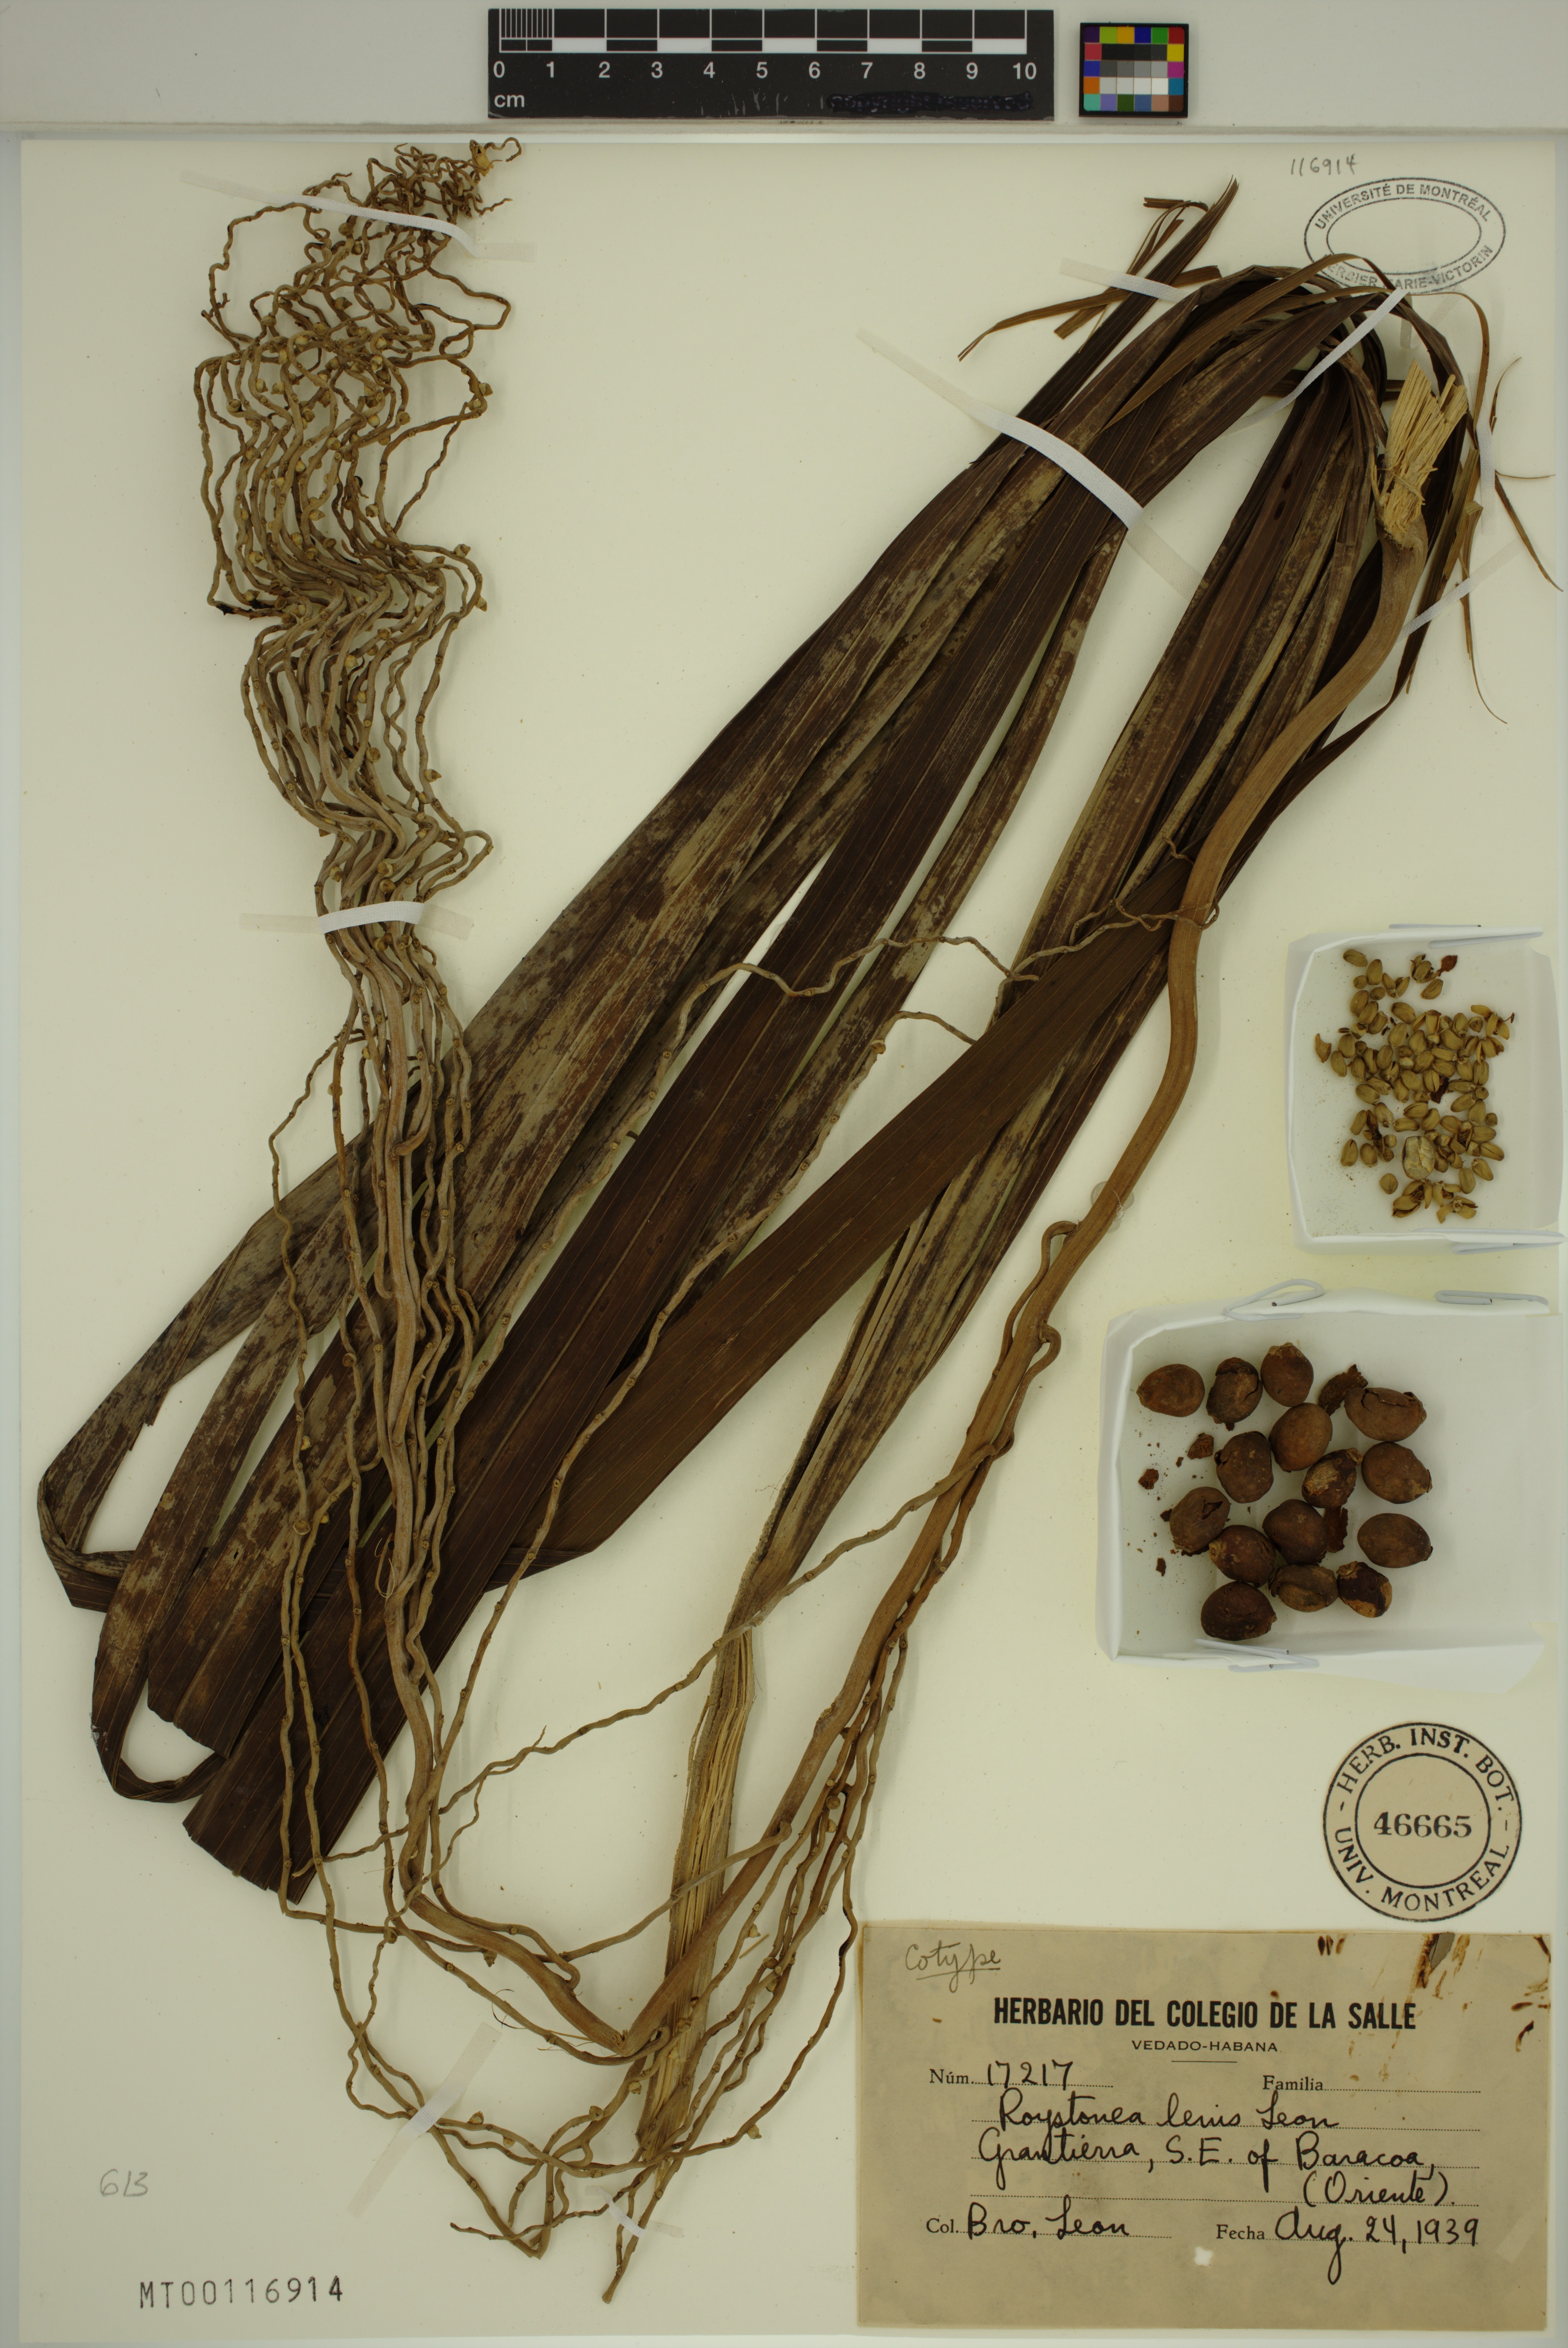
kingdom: Plantae
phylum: Tracheophyta
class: Liliopsida
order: Arecales
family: Arecaceae
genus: Roystonea
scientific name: Roystonea lenis
